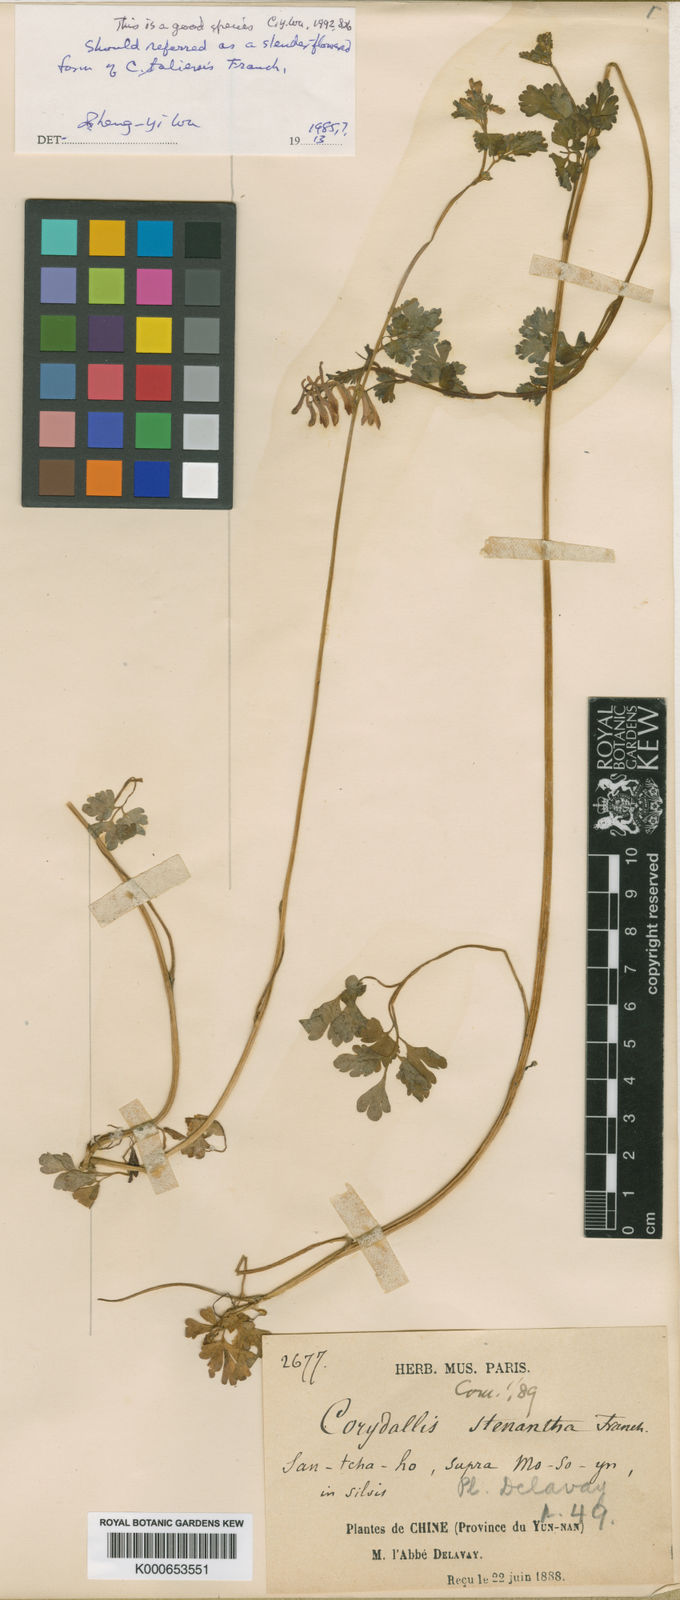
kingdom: Plantae
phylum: Tracheophyta
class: Magnoliopsida
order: Ranunculales
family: Papaveraceae
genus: Corydalis
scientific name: Corydalis stenantha
